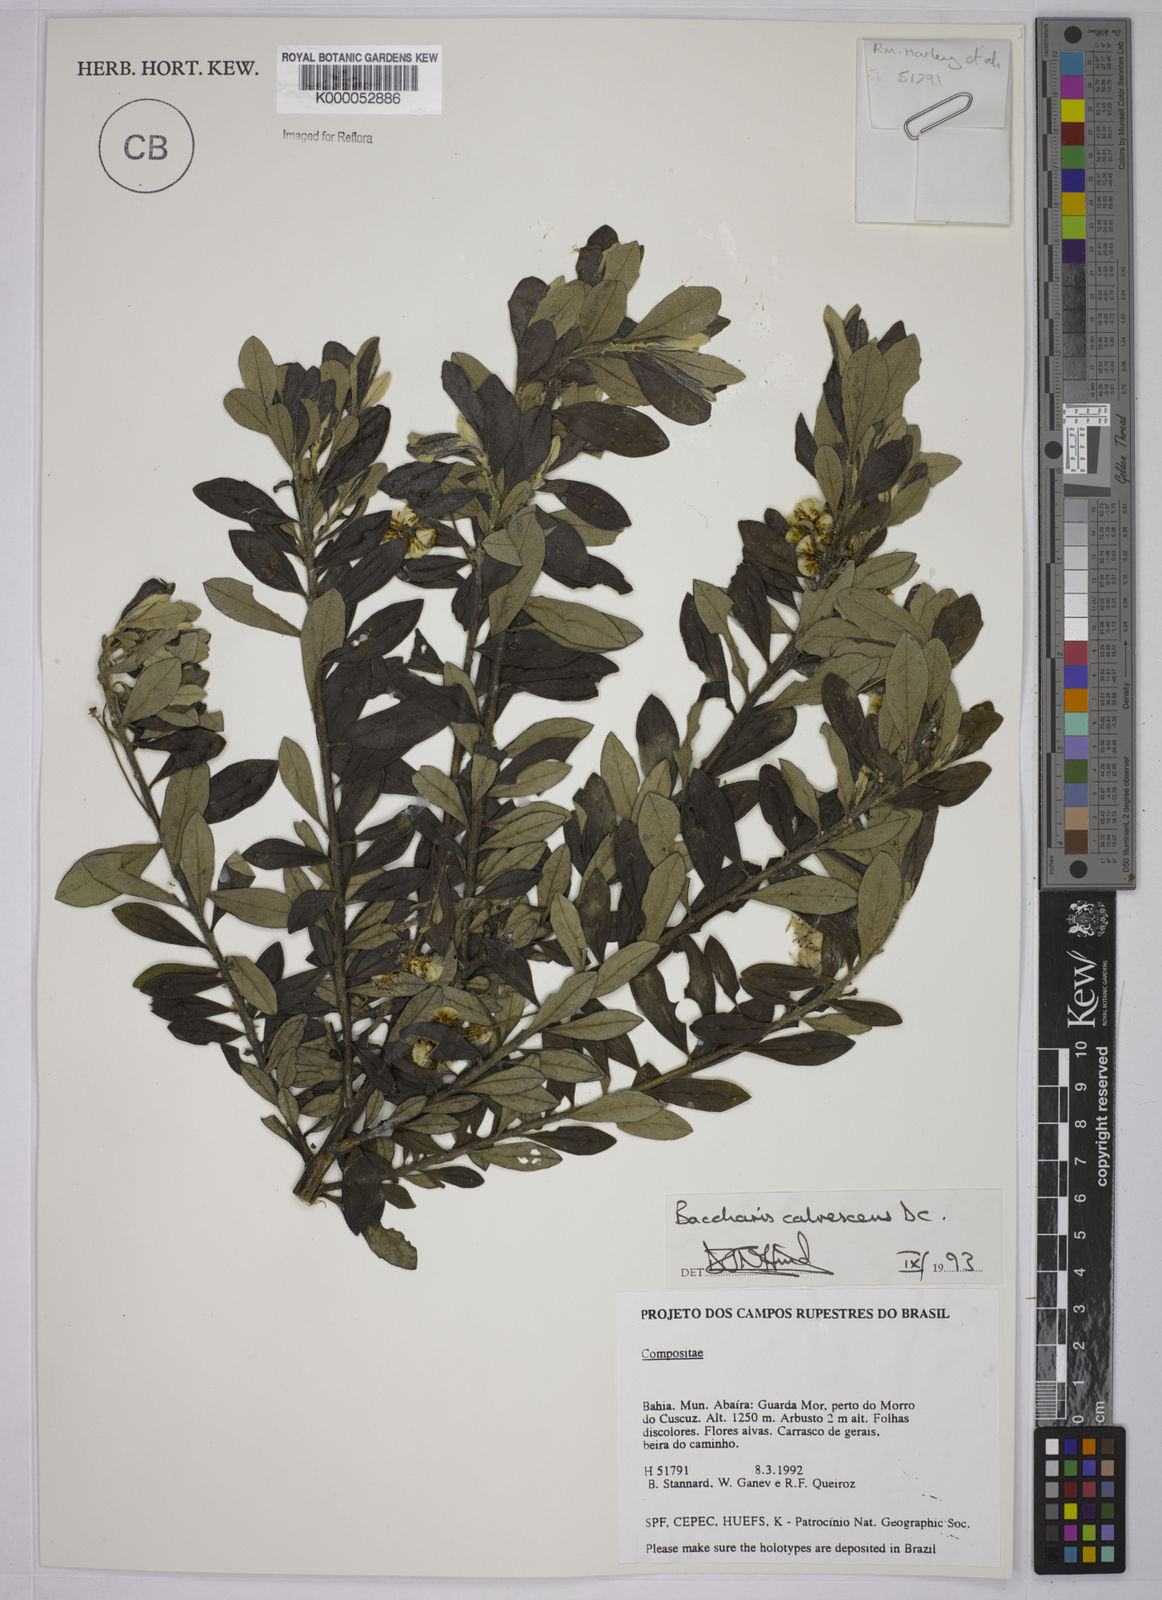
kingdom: Plantae
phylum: Tracheophyta
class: Magnoliopsida
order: Asterales
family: Asteraceae
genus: Baccharis
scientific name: Baccharis calvescens
